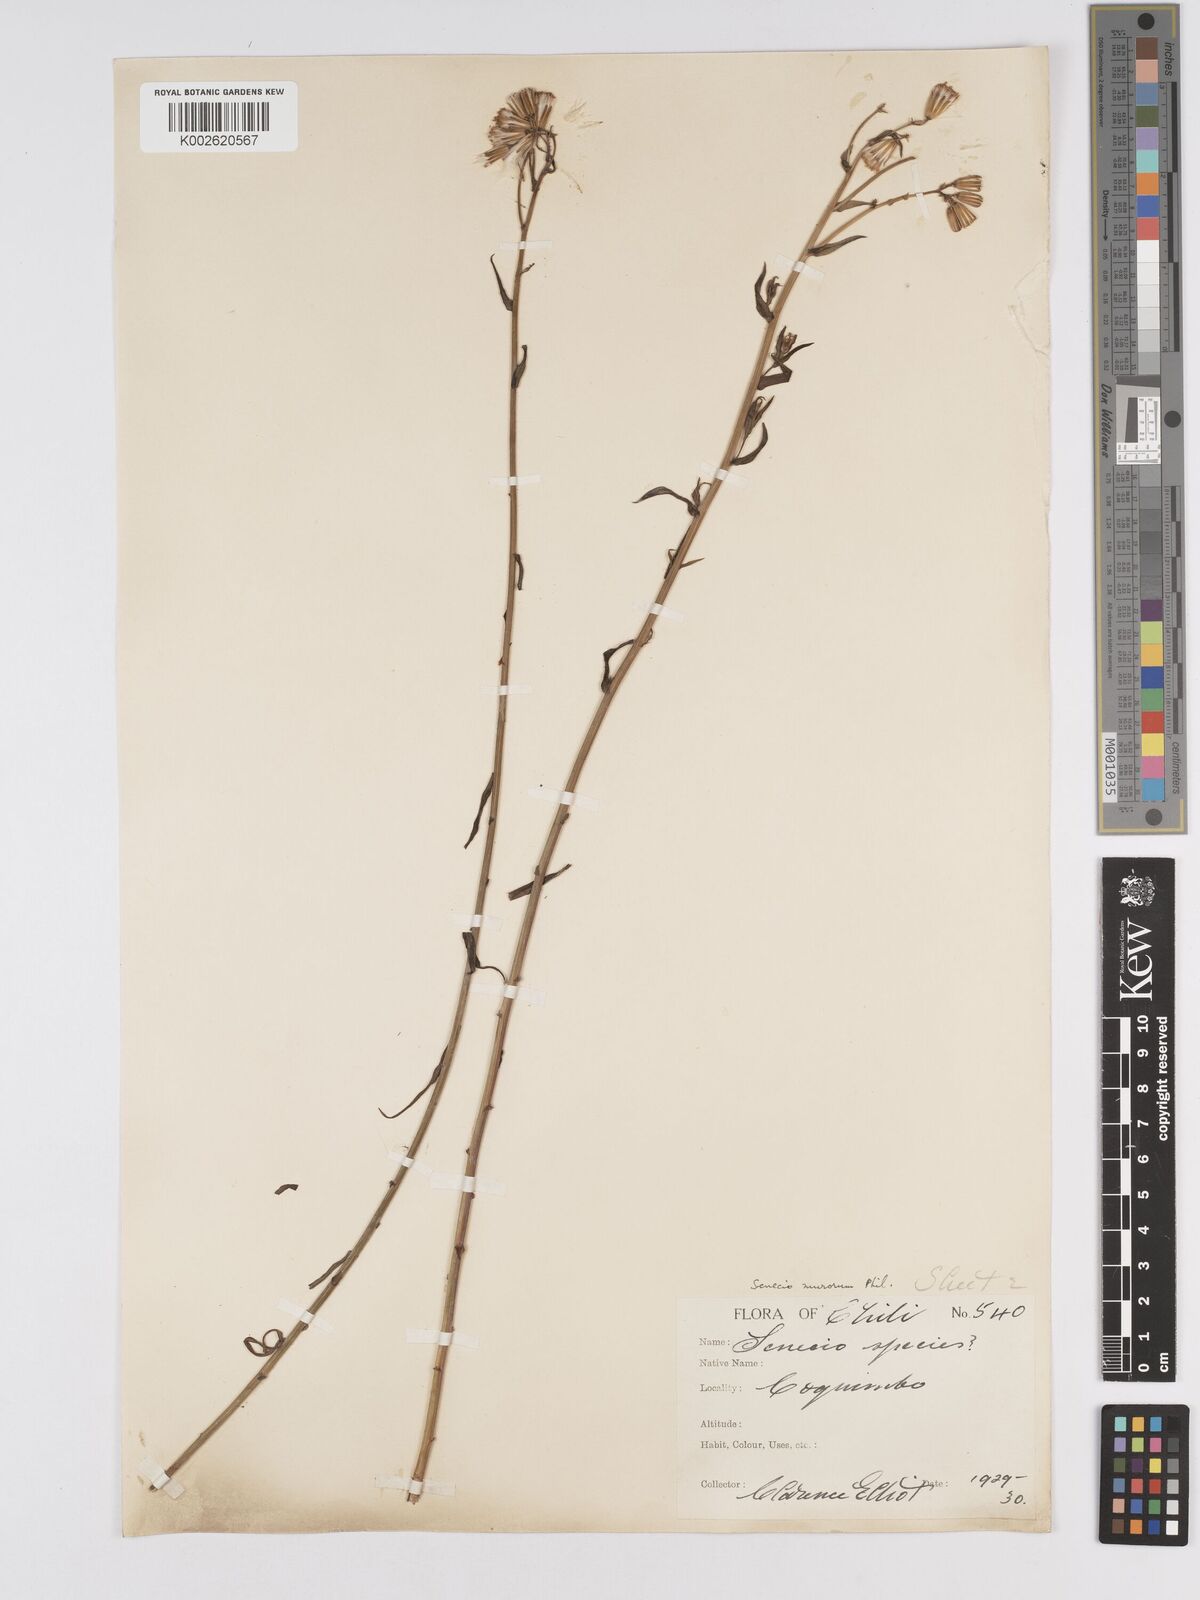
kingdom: Plantae
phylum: Tracheophyta
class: Magnoliopsida
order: Asterales
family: Asteraceae
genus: Senecio
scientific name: Senecio murorum
